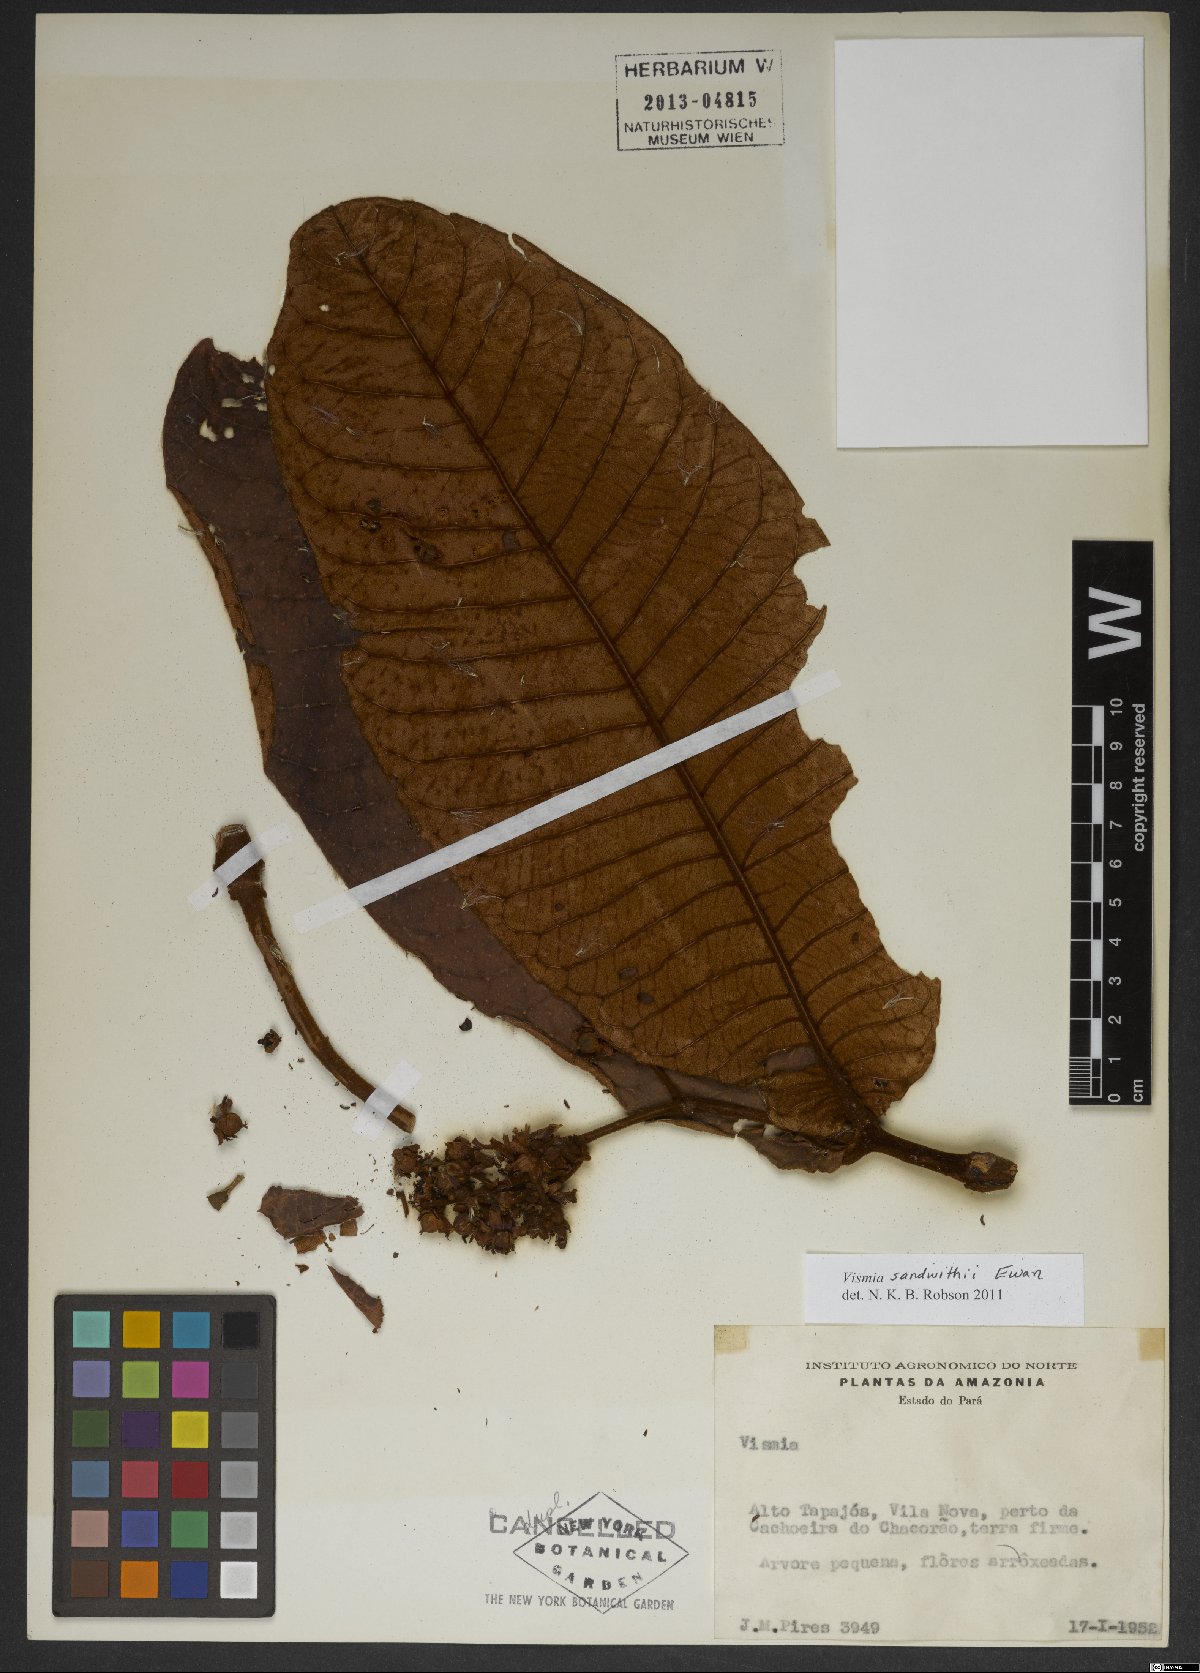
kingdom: Plantae
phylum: Tracheophyta
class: Magnoliopsida
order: Malpighiales
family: Hypericaceae
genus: Vismia
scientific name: Vismia sandwithii
